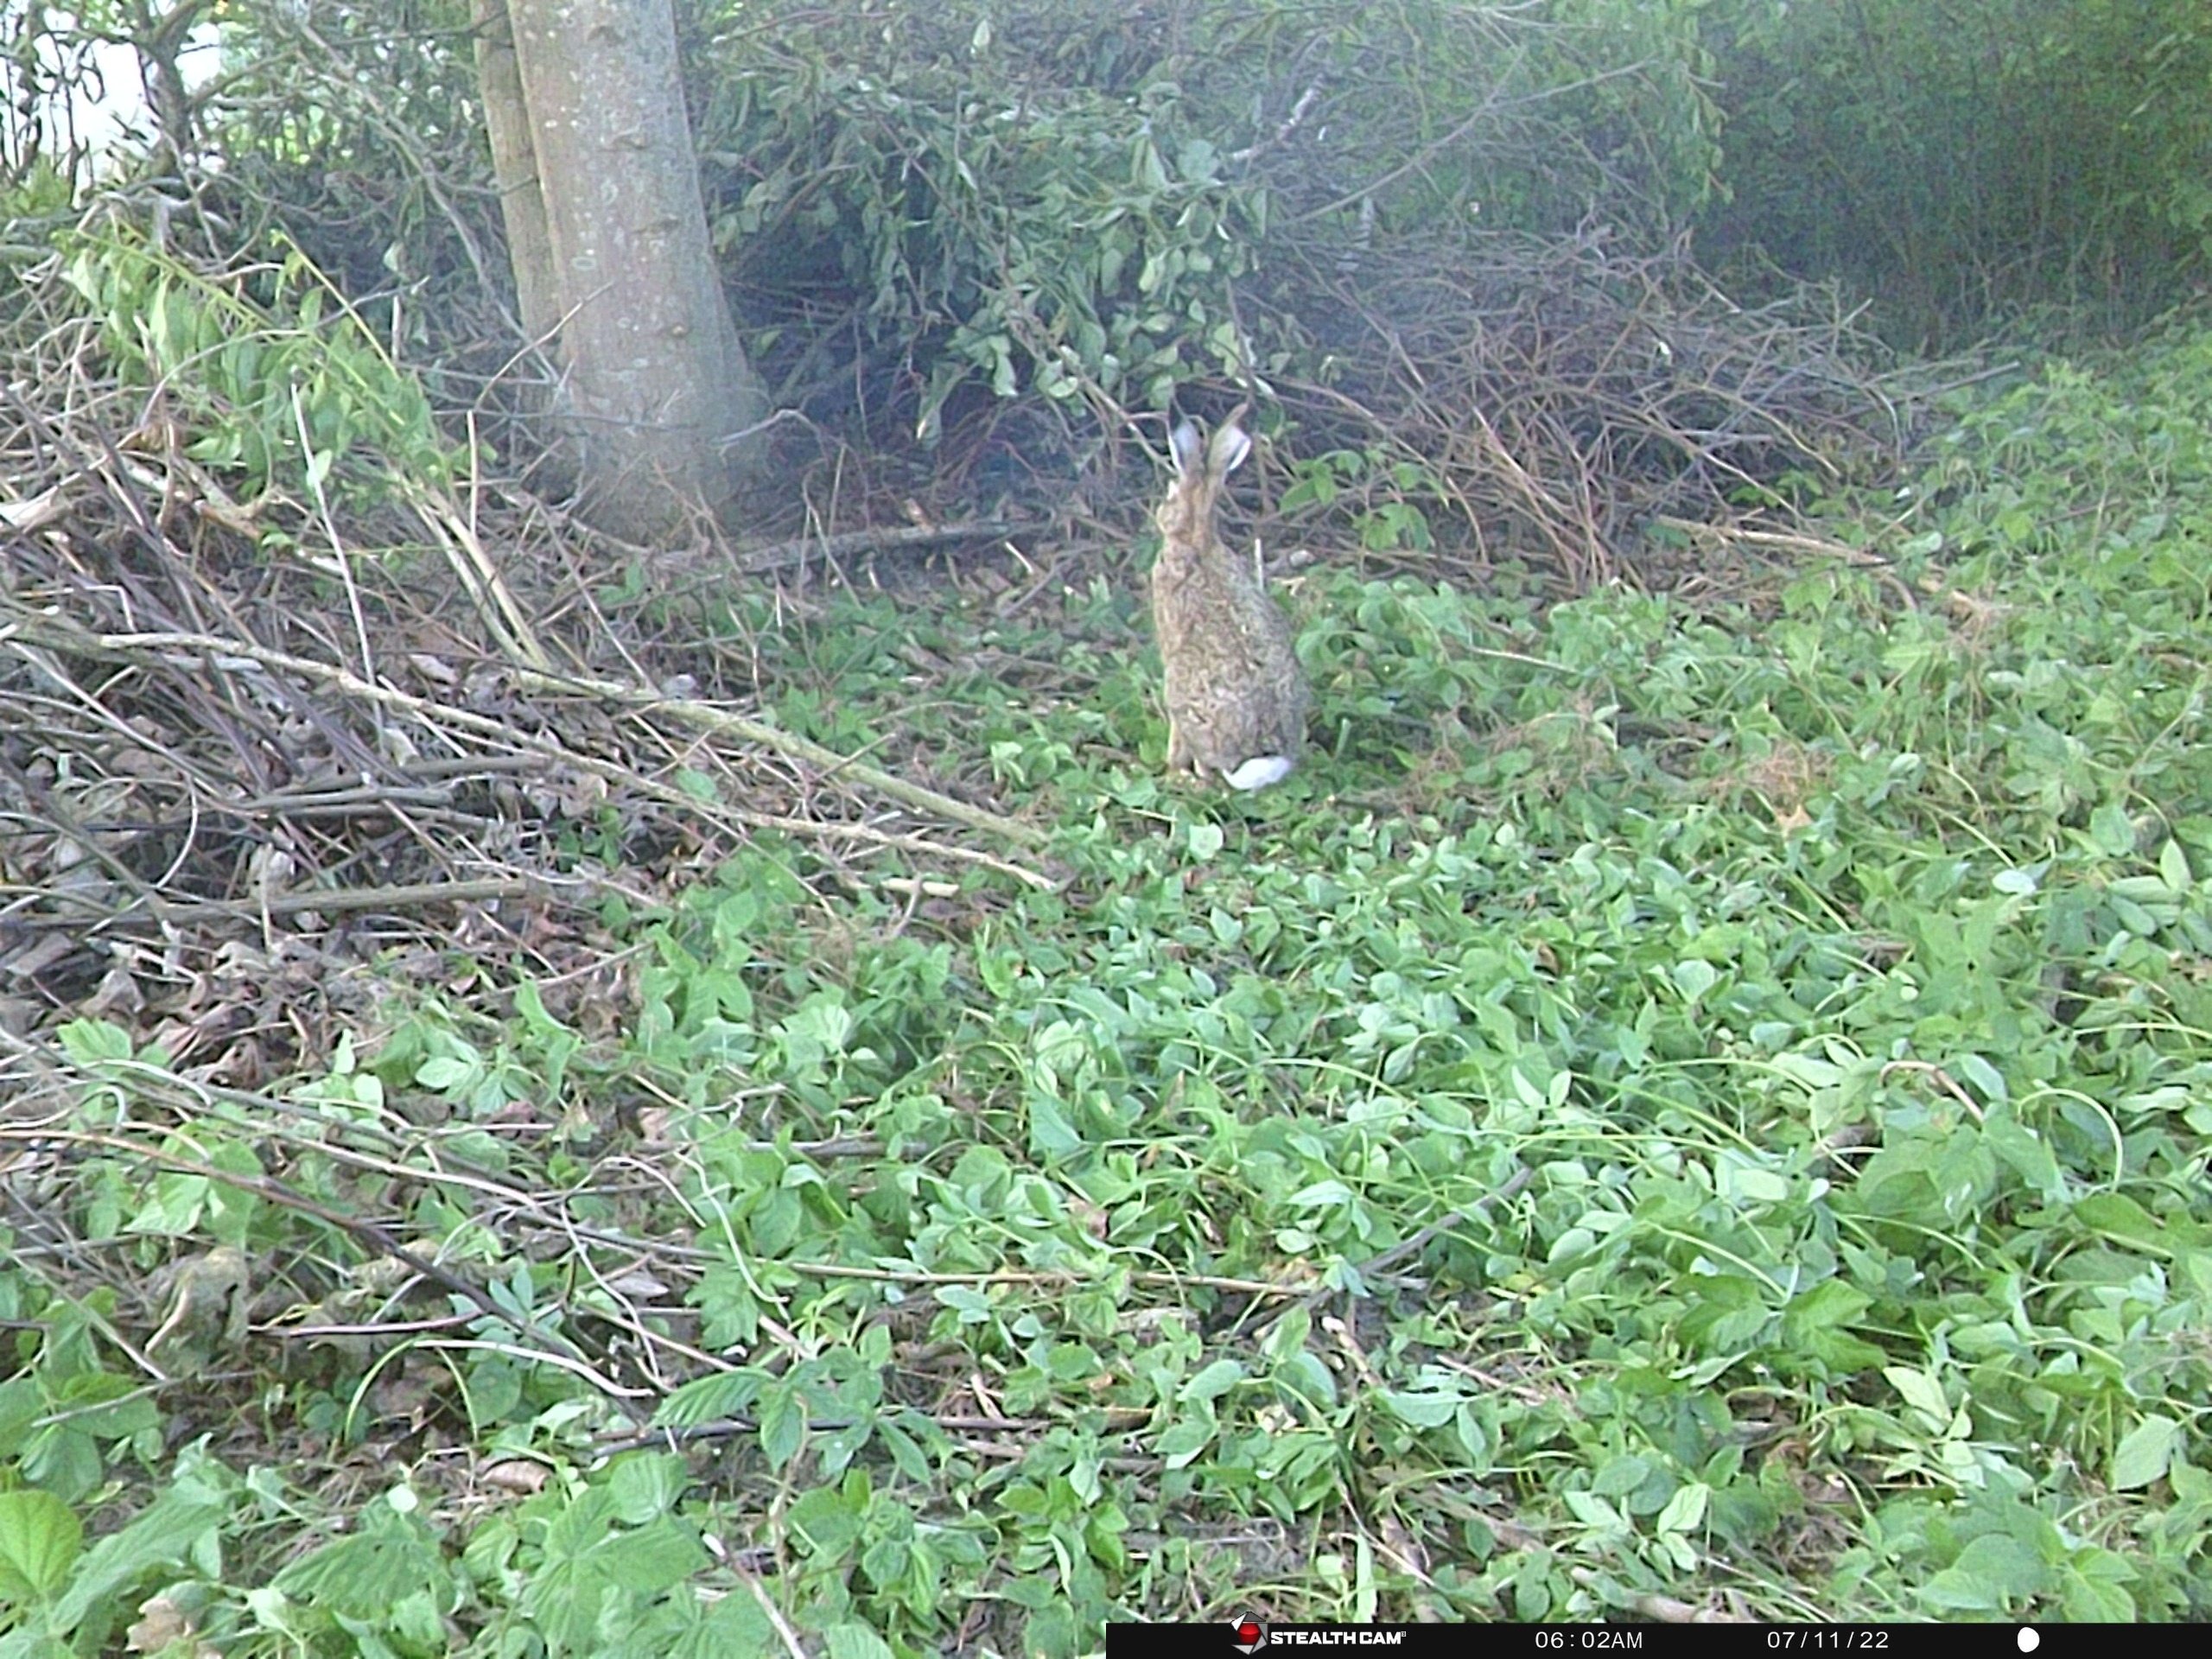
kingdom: Animalia
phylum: Chordata
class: Mammalia
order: Lagomorpha
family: Leporidae
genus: Lepus
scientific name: Lepus europaeus
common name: Hare
